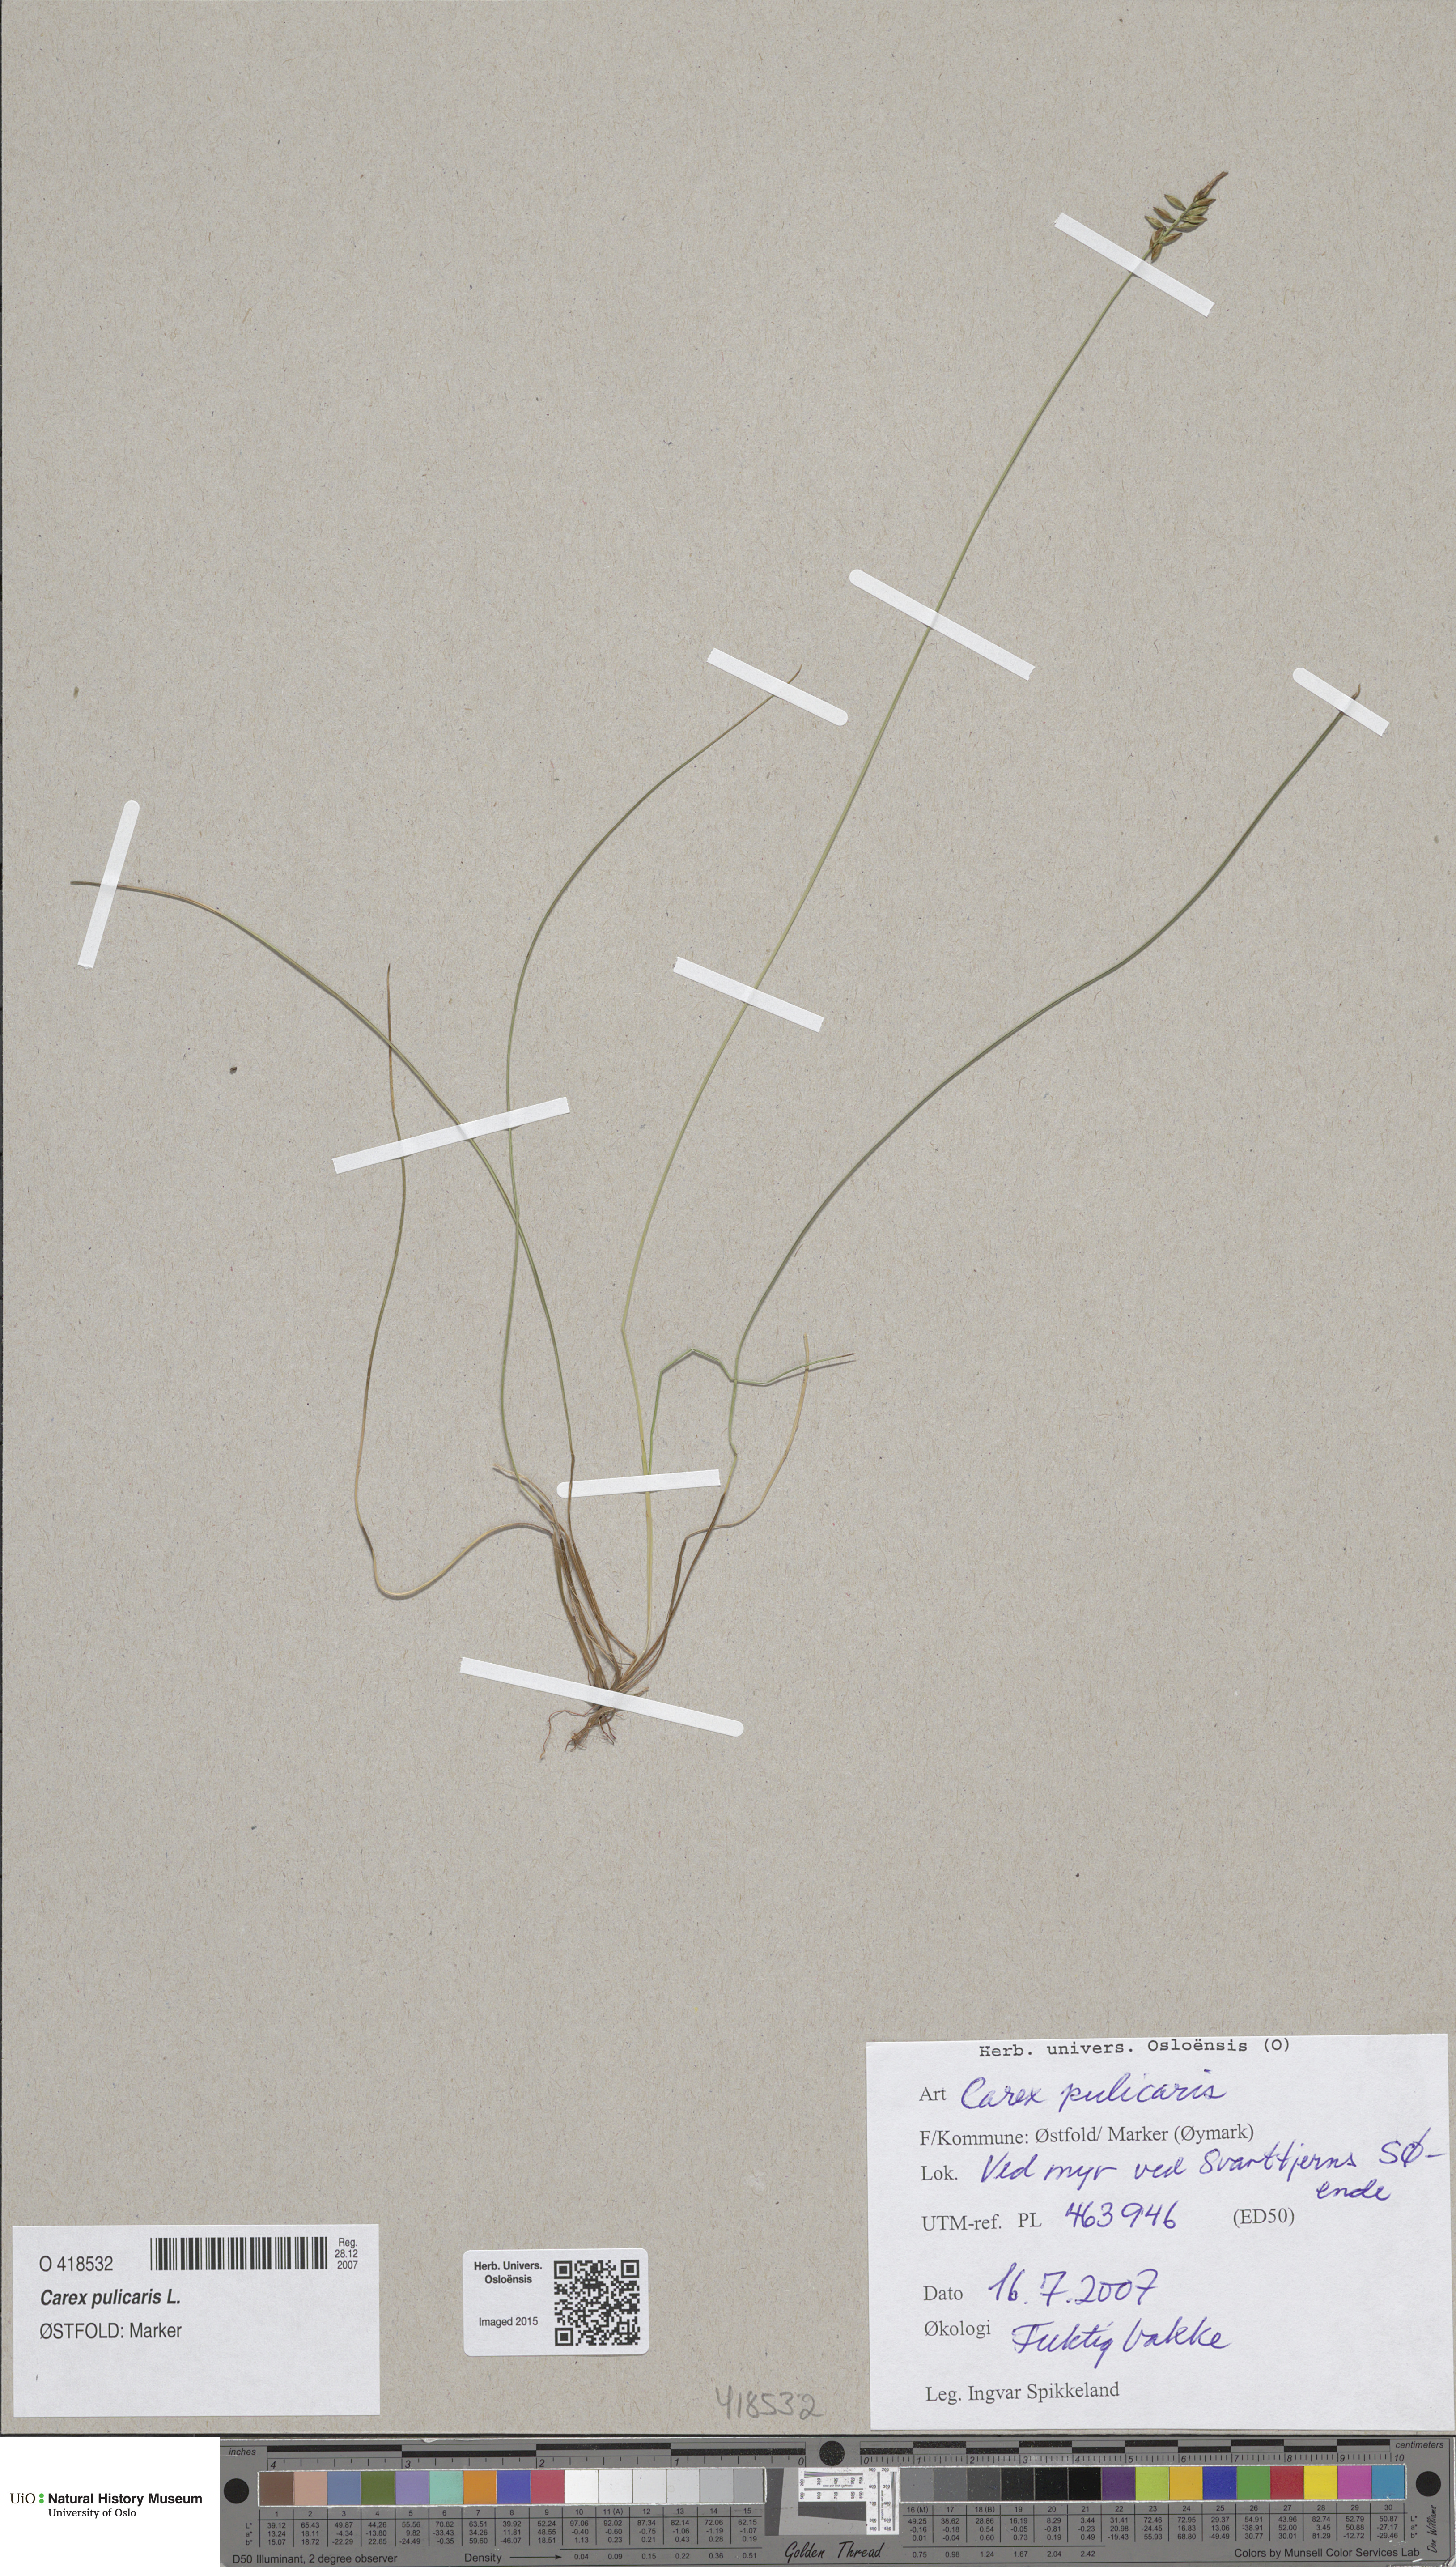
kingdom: Plantae
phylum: Tracheophyta
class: Liliopsida
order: Poales
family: Cyperaceae
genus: Carex
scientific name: Carex pulicaris
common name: Flea sedge
